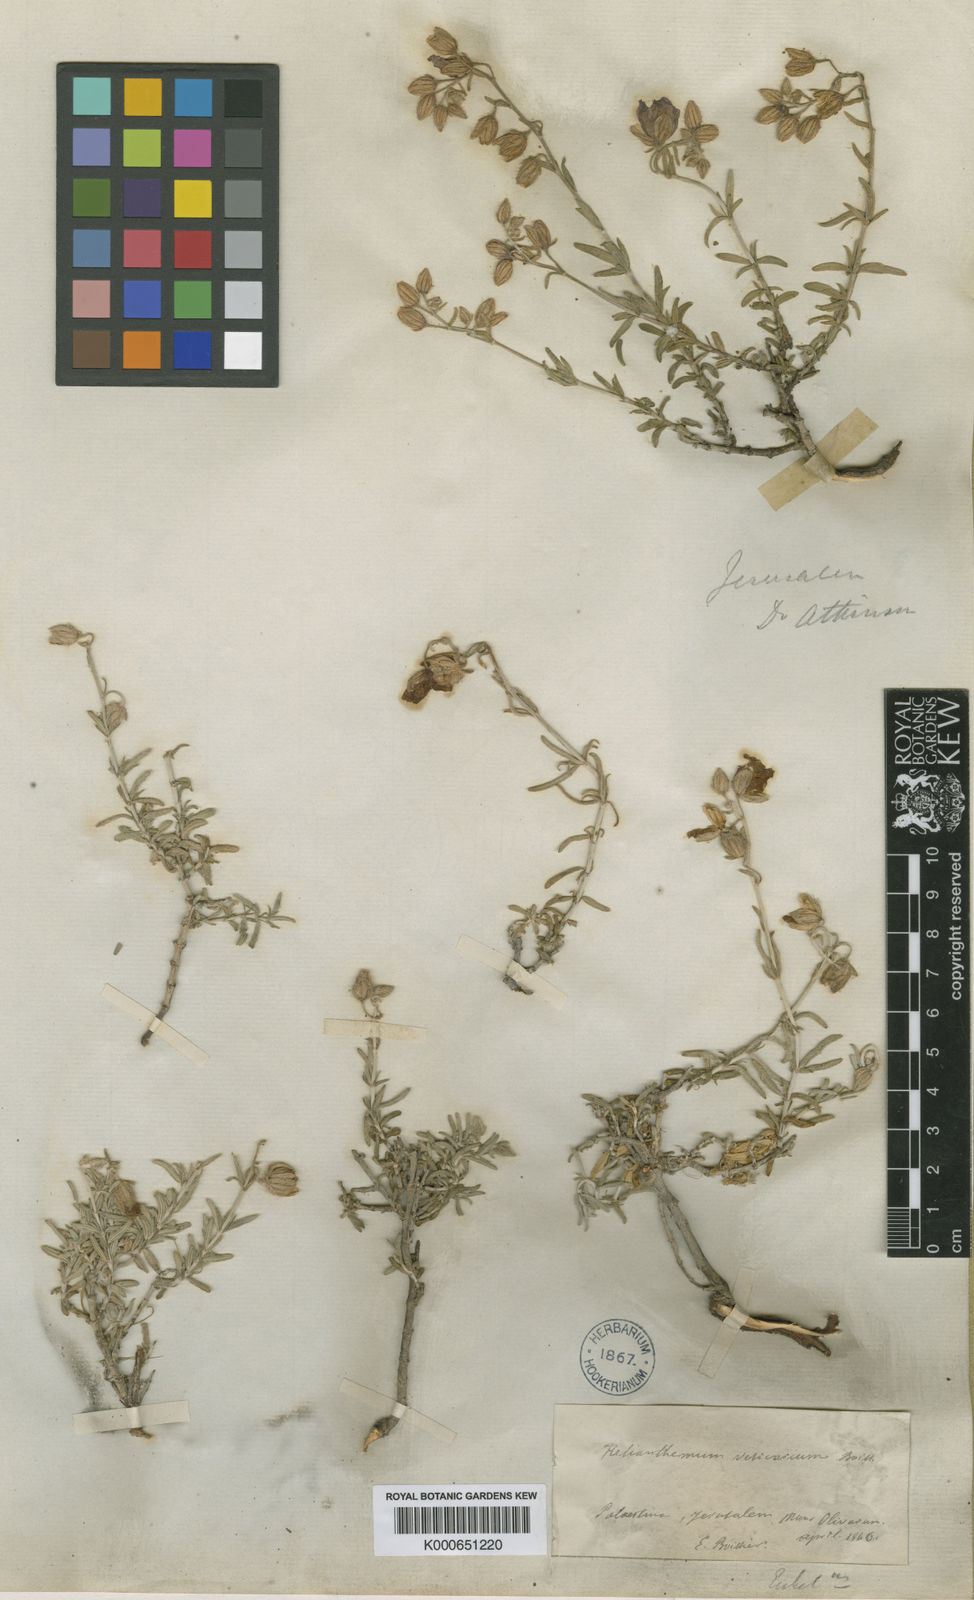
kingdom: Plantae
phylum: Tracheophyta
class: Magnoliopsida
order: Malvales
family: Cistaceae
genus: Helianthemum
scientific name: Helianthemum vesicarium
